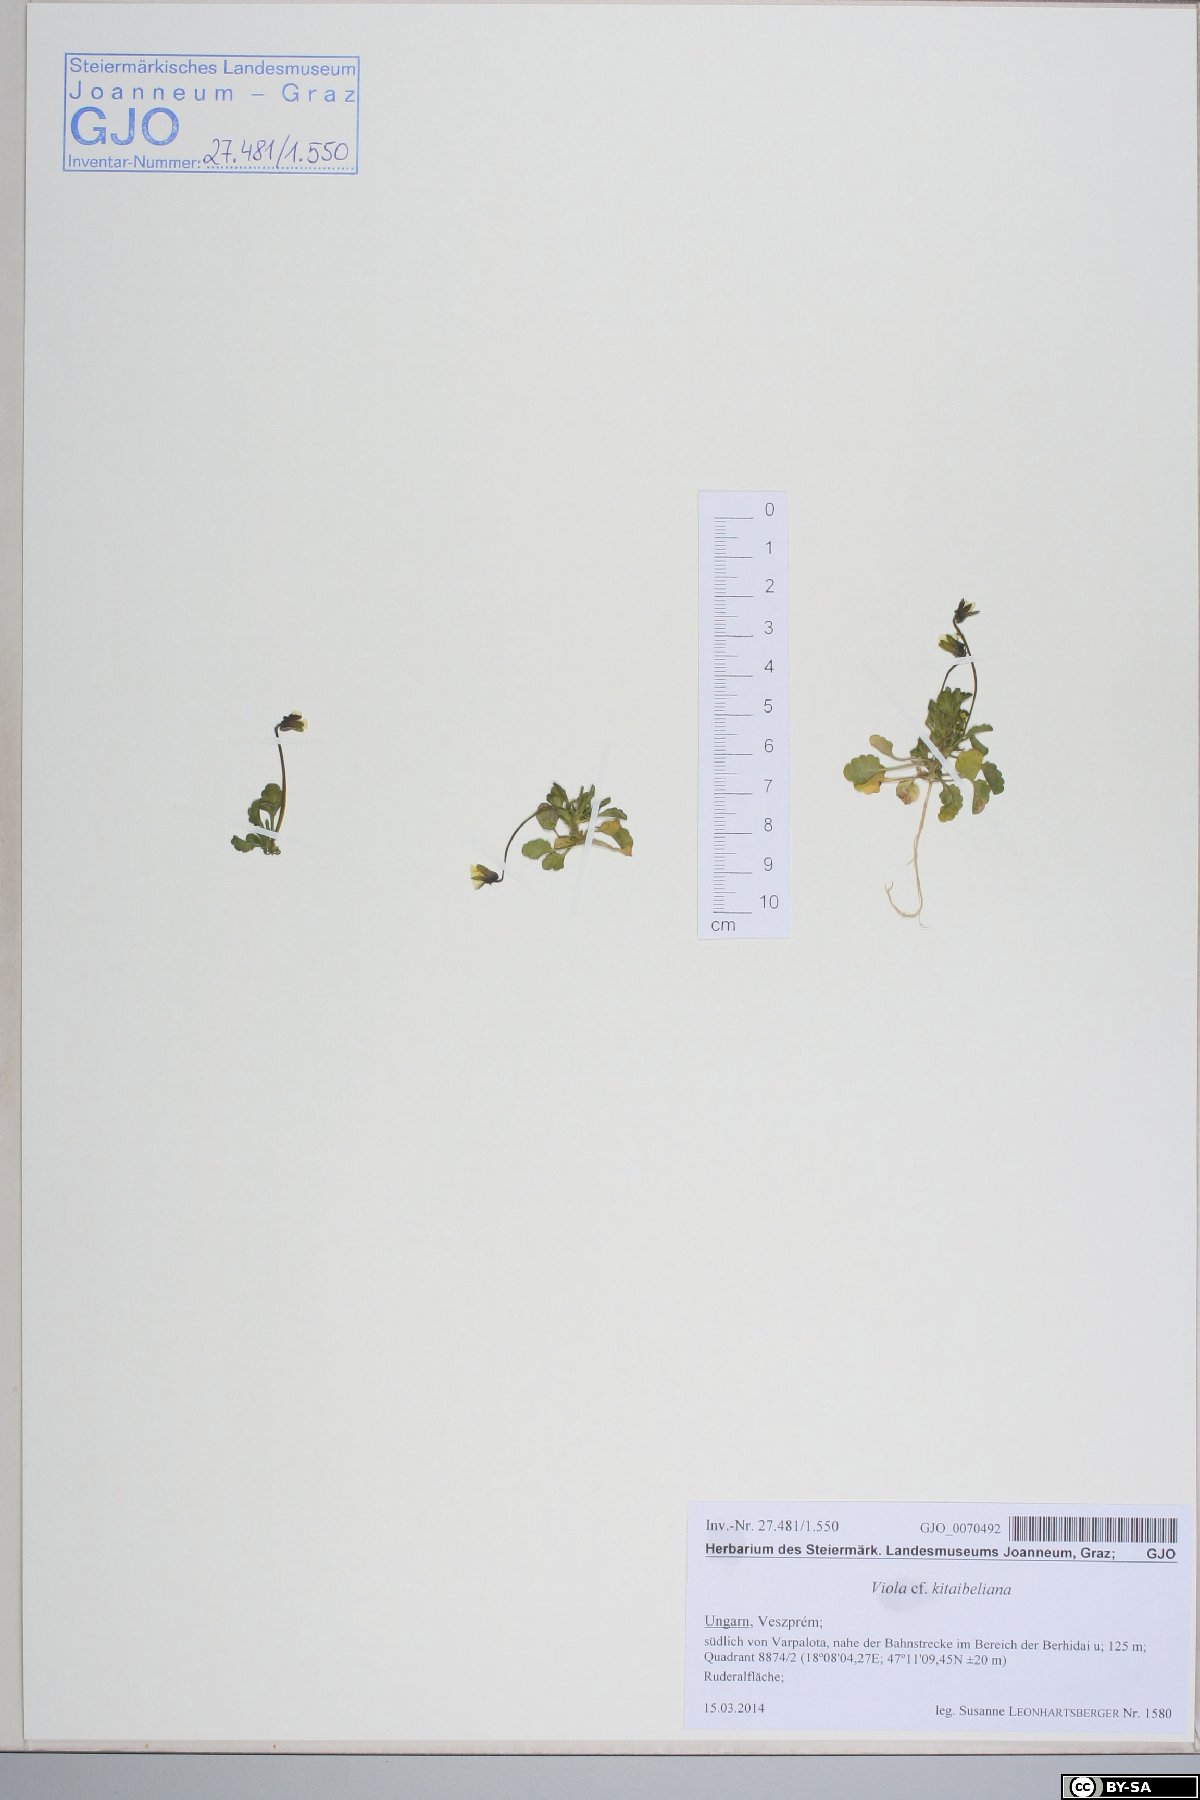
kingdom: Plantae
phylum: Tracheophyta
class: Magnoliopsida
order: Malpighiales
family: Violaceae
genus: Viola
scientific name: Viola kitaibeliana
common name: Dwarf pansy
